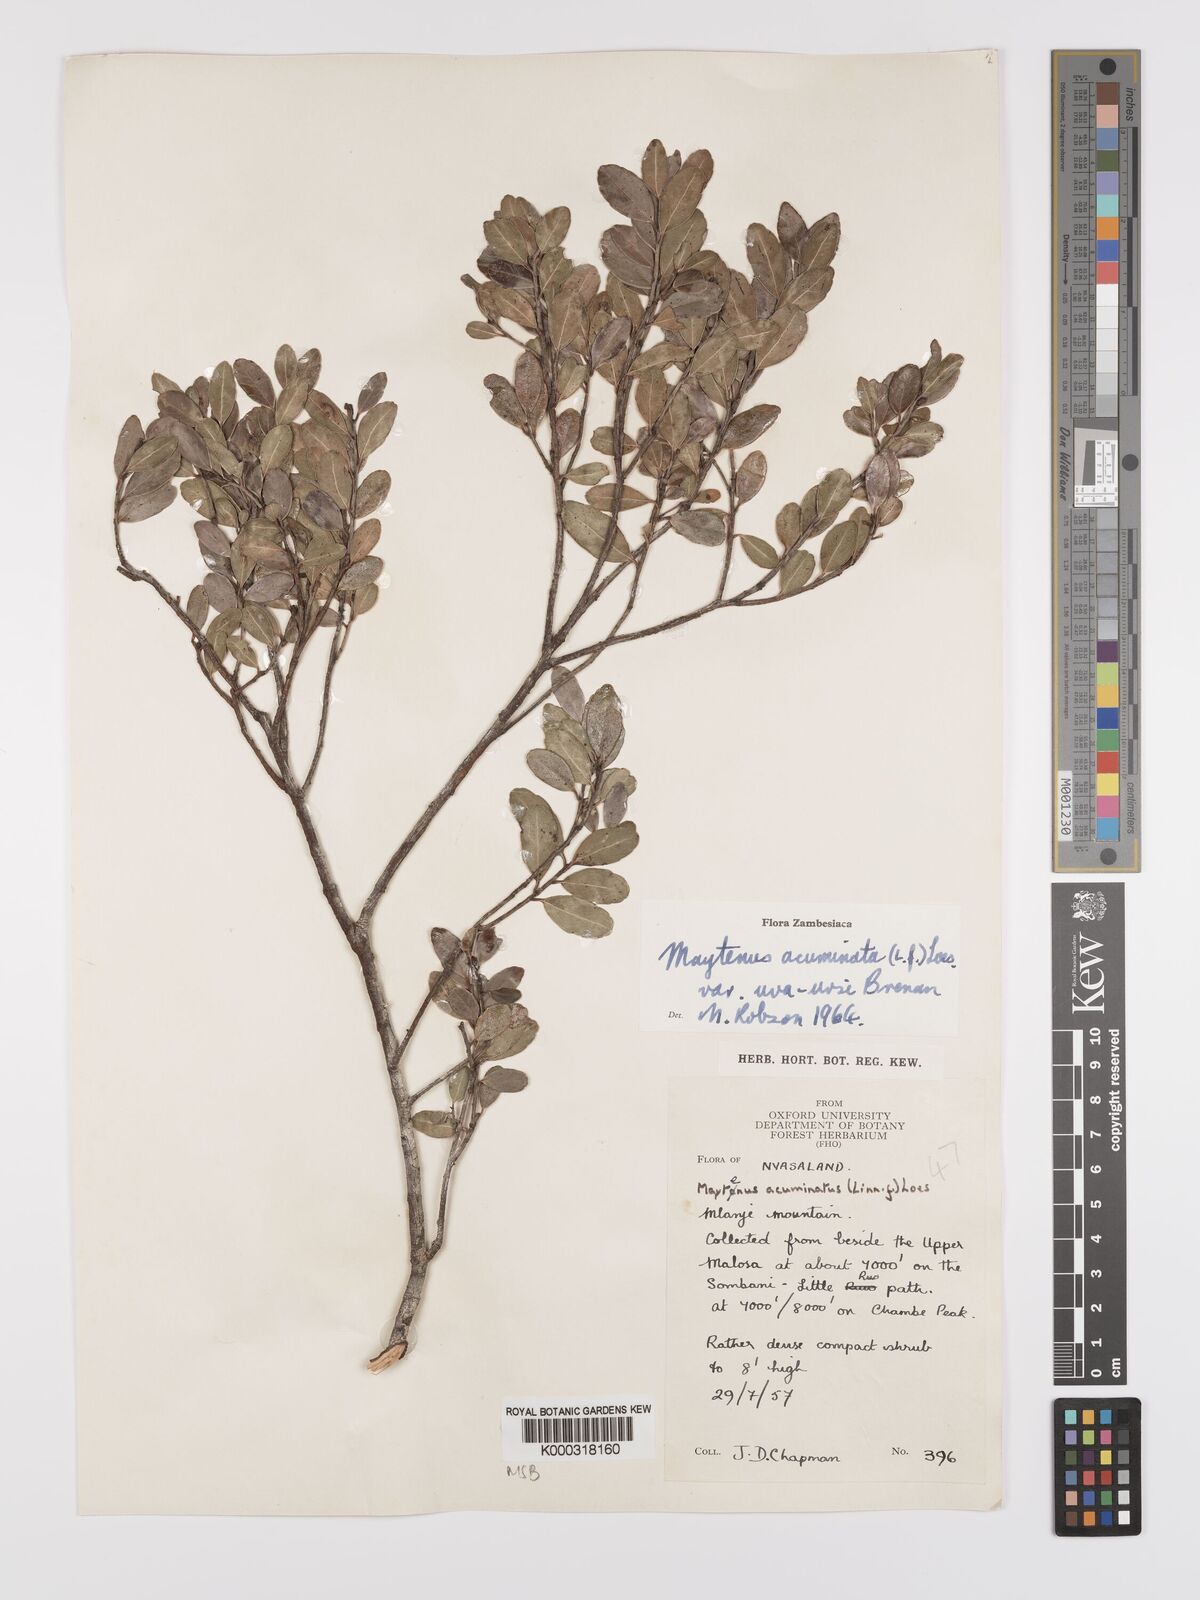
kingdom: Plantae
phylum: Tracheophyta
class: Magnoliopsida
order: Celastrales
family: Celastraceae
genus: Maytenus
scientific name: Maytenus
